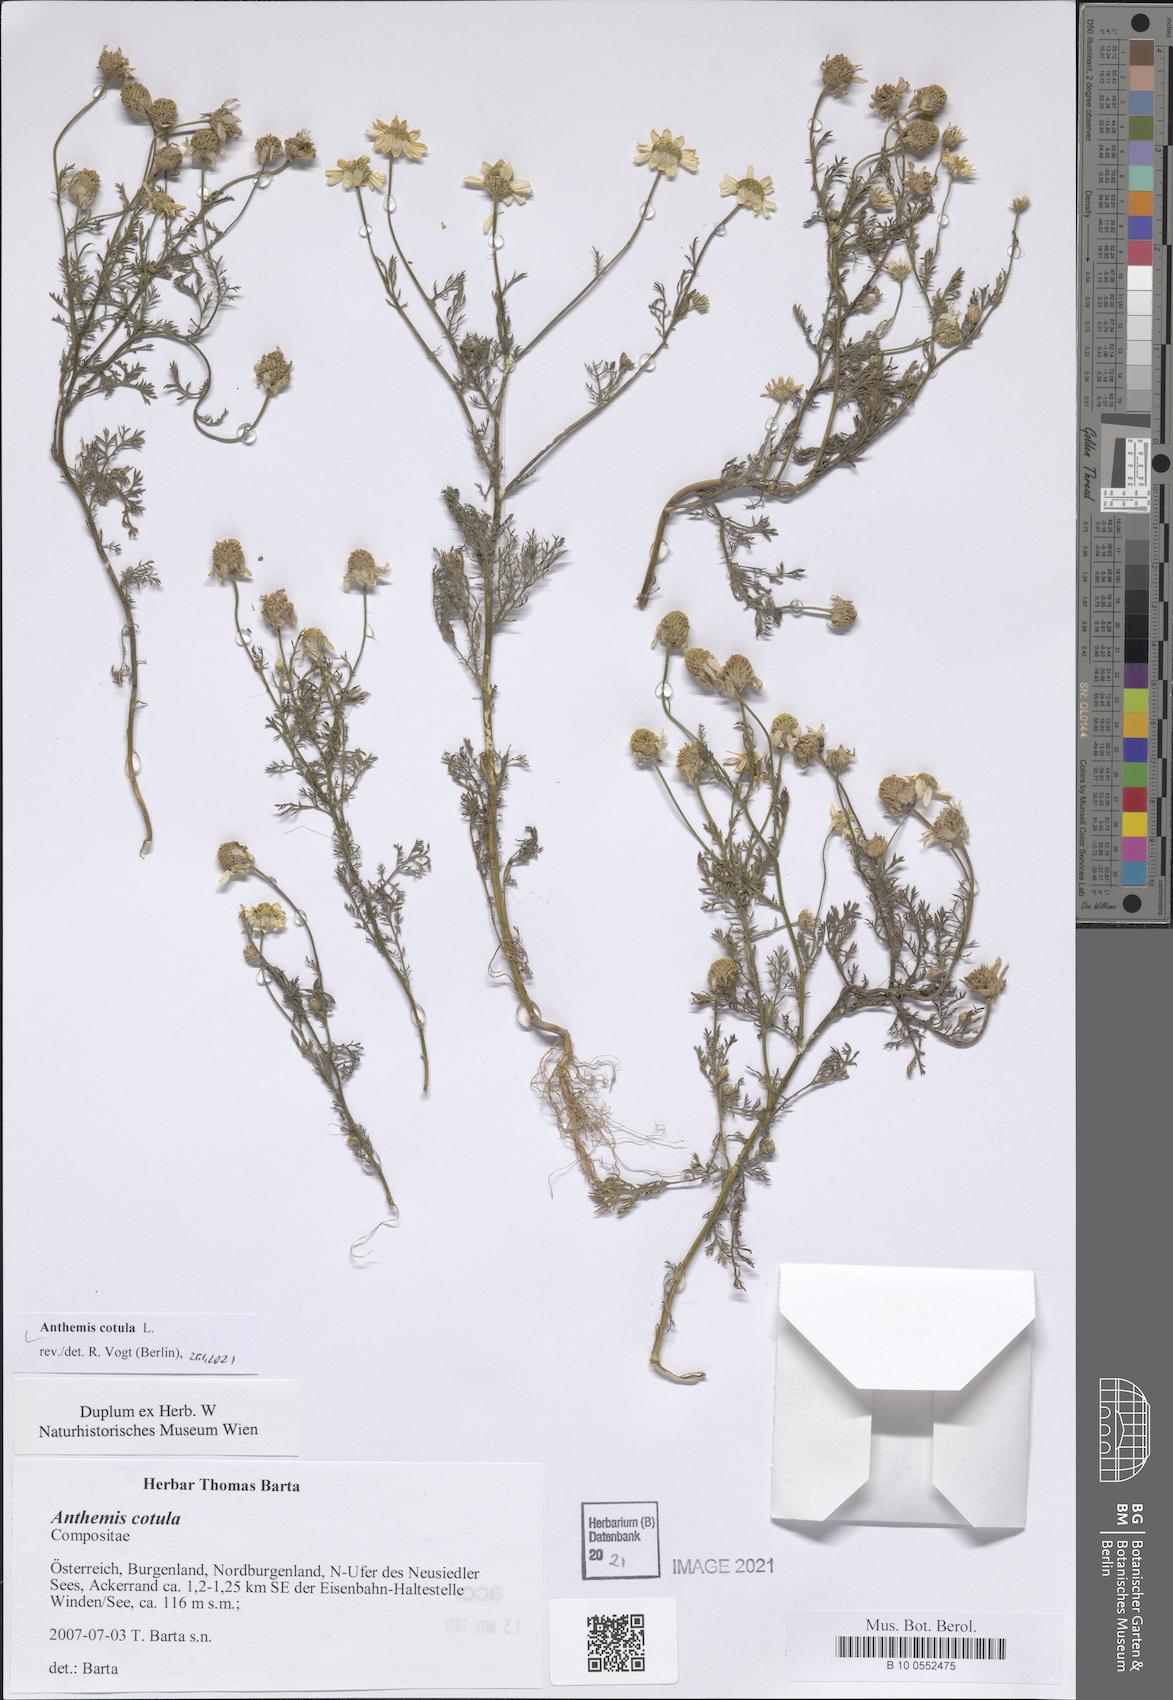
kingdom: Plantae
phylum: Tracheophyta
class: Magnoliopsida
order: Asterales
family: Asteraceae
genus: Anthemis
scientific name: Anthemis cotula
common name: Stinking chamomile
